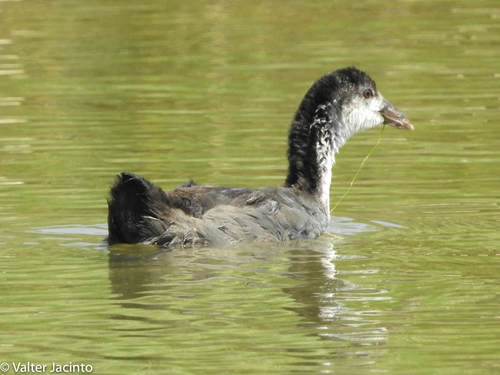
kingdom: Animalia
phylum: Chordata
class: Aves
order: Gruiformes
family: Rallidae
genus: Gallinula
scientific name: Gallinula chloropus
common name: Common moorhen
